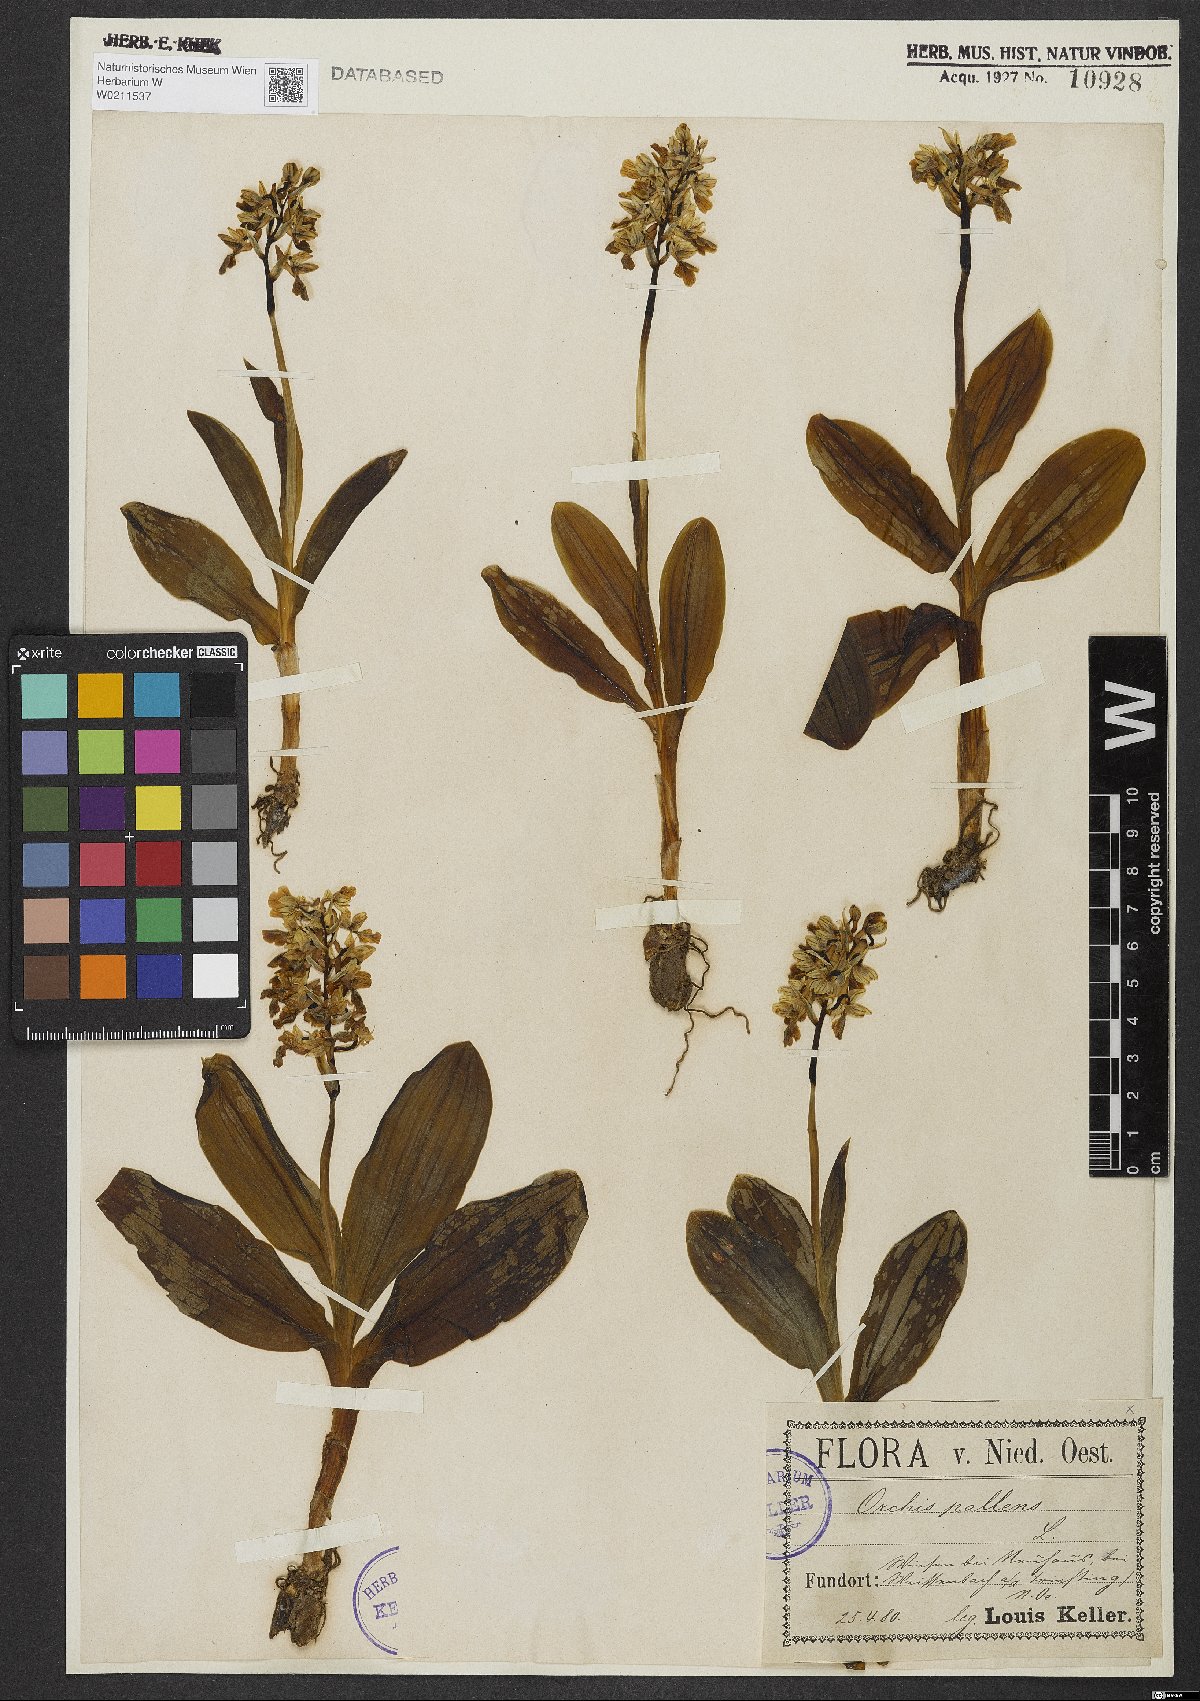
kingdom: Plantae
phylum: Tracheophyta
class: Liliopsida
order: Asparagales
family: Orchidaceae
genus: Orchis
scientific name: Orchis pallens
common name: Pale-flowered orchid
